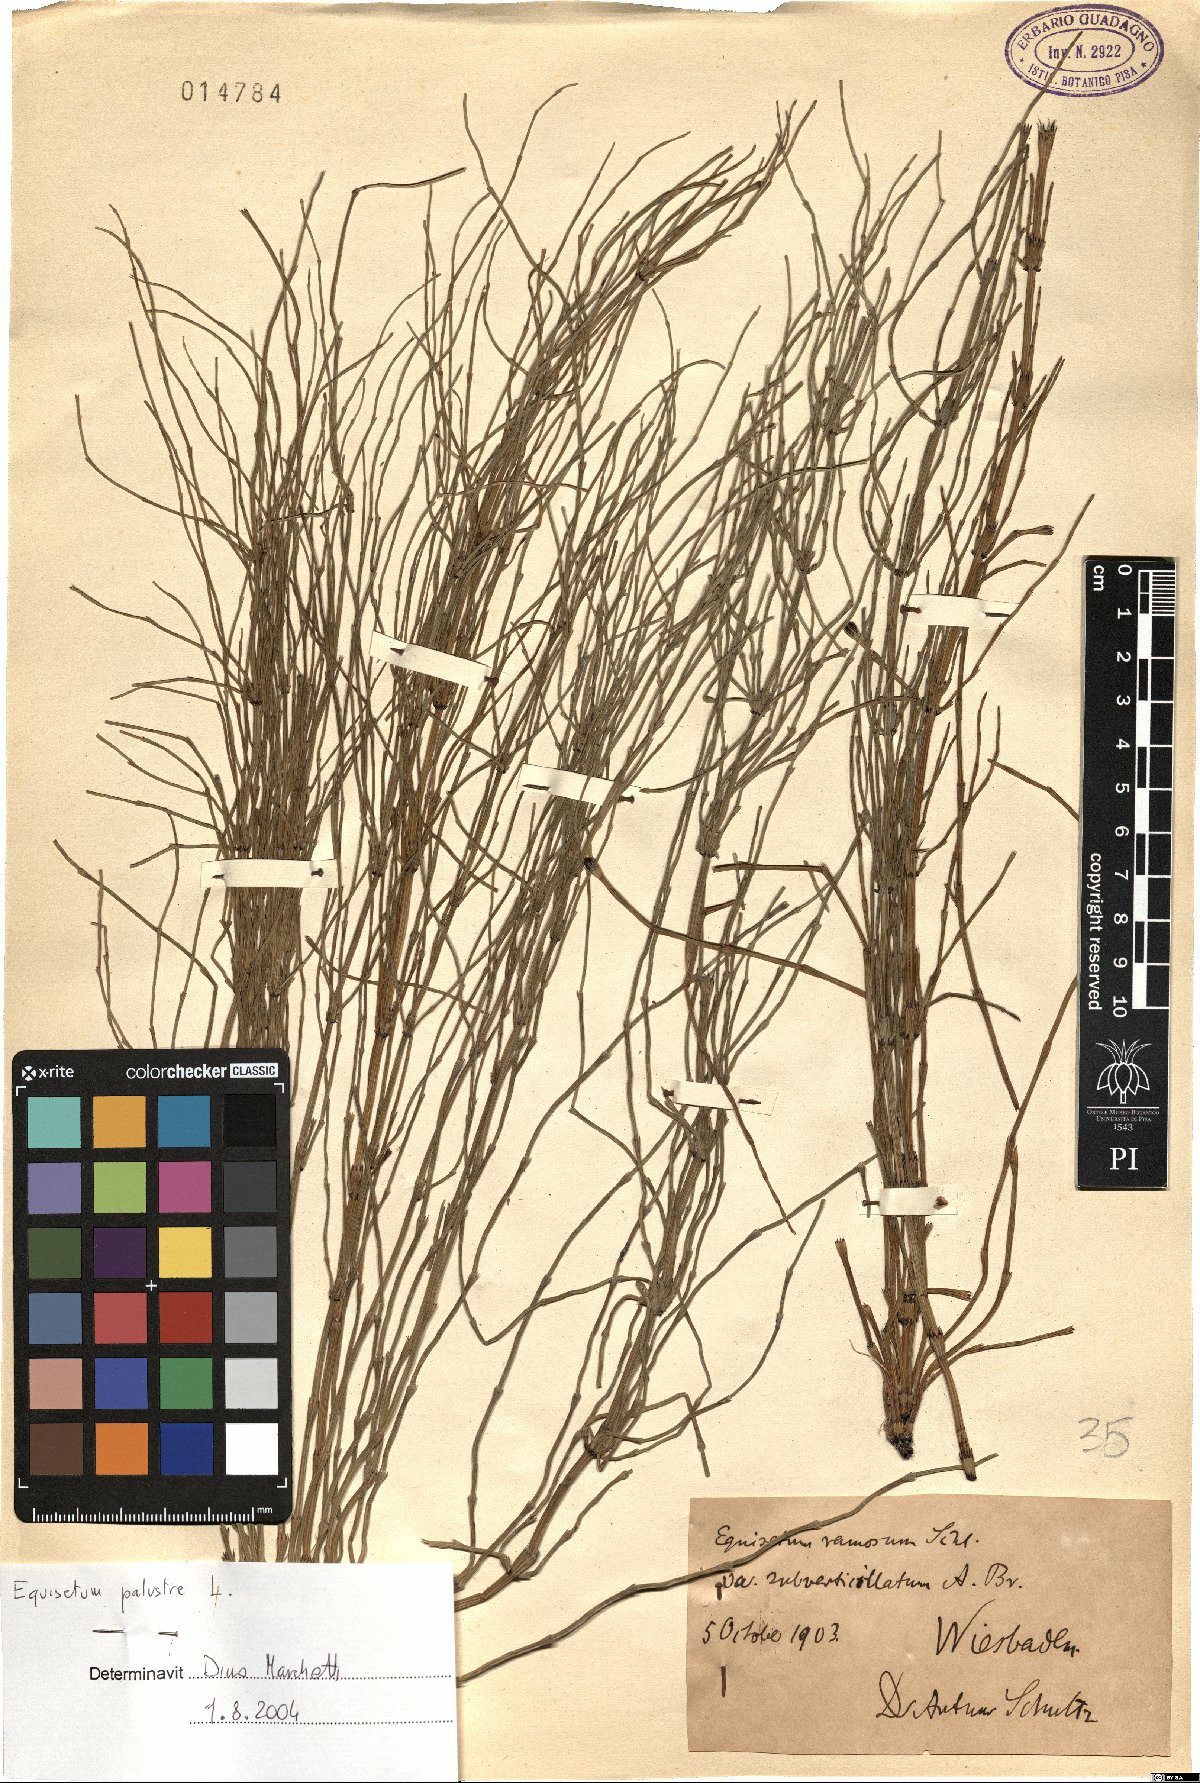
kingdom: Plantae
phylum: Tracheophyta
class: Polypodiopsida
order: Equisetales
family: Equisetaceae
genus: Equisetum
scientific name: Equisetum palustre
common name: Marsh horsetail
